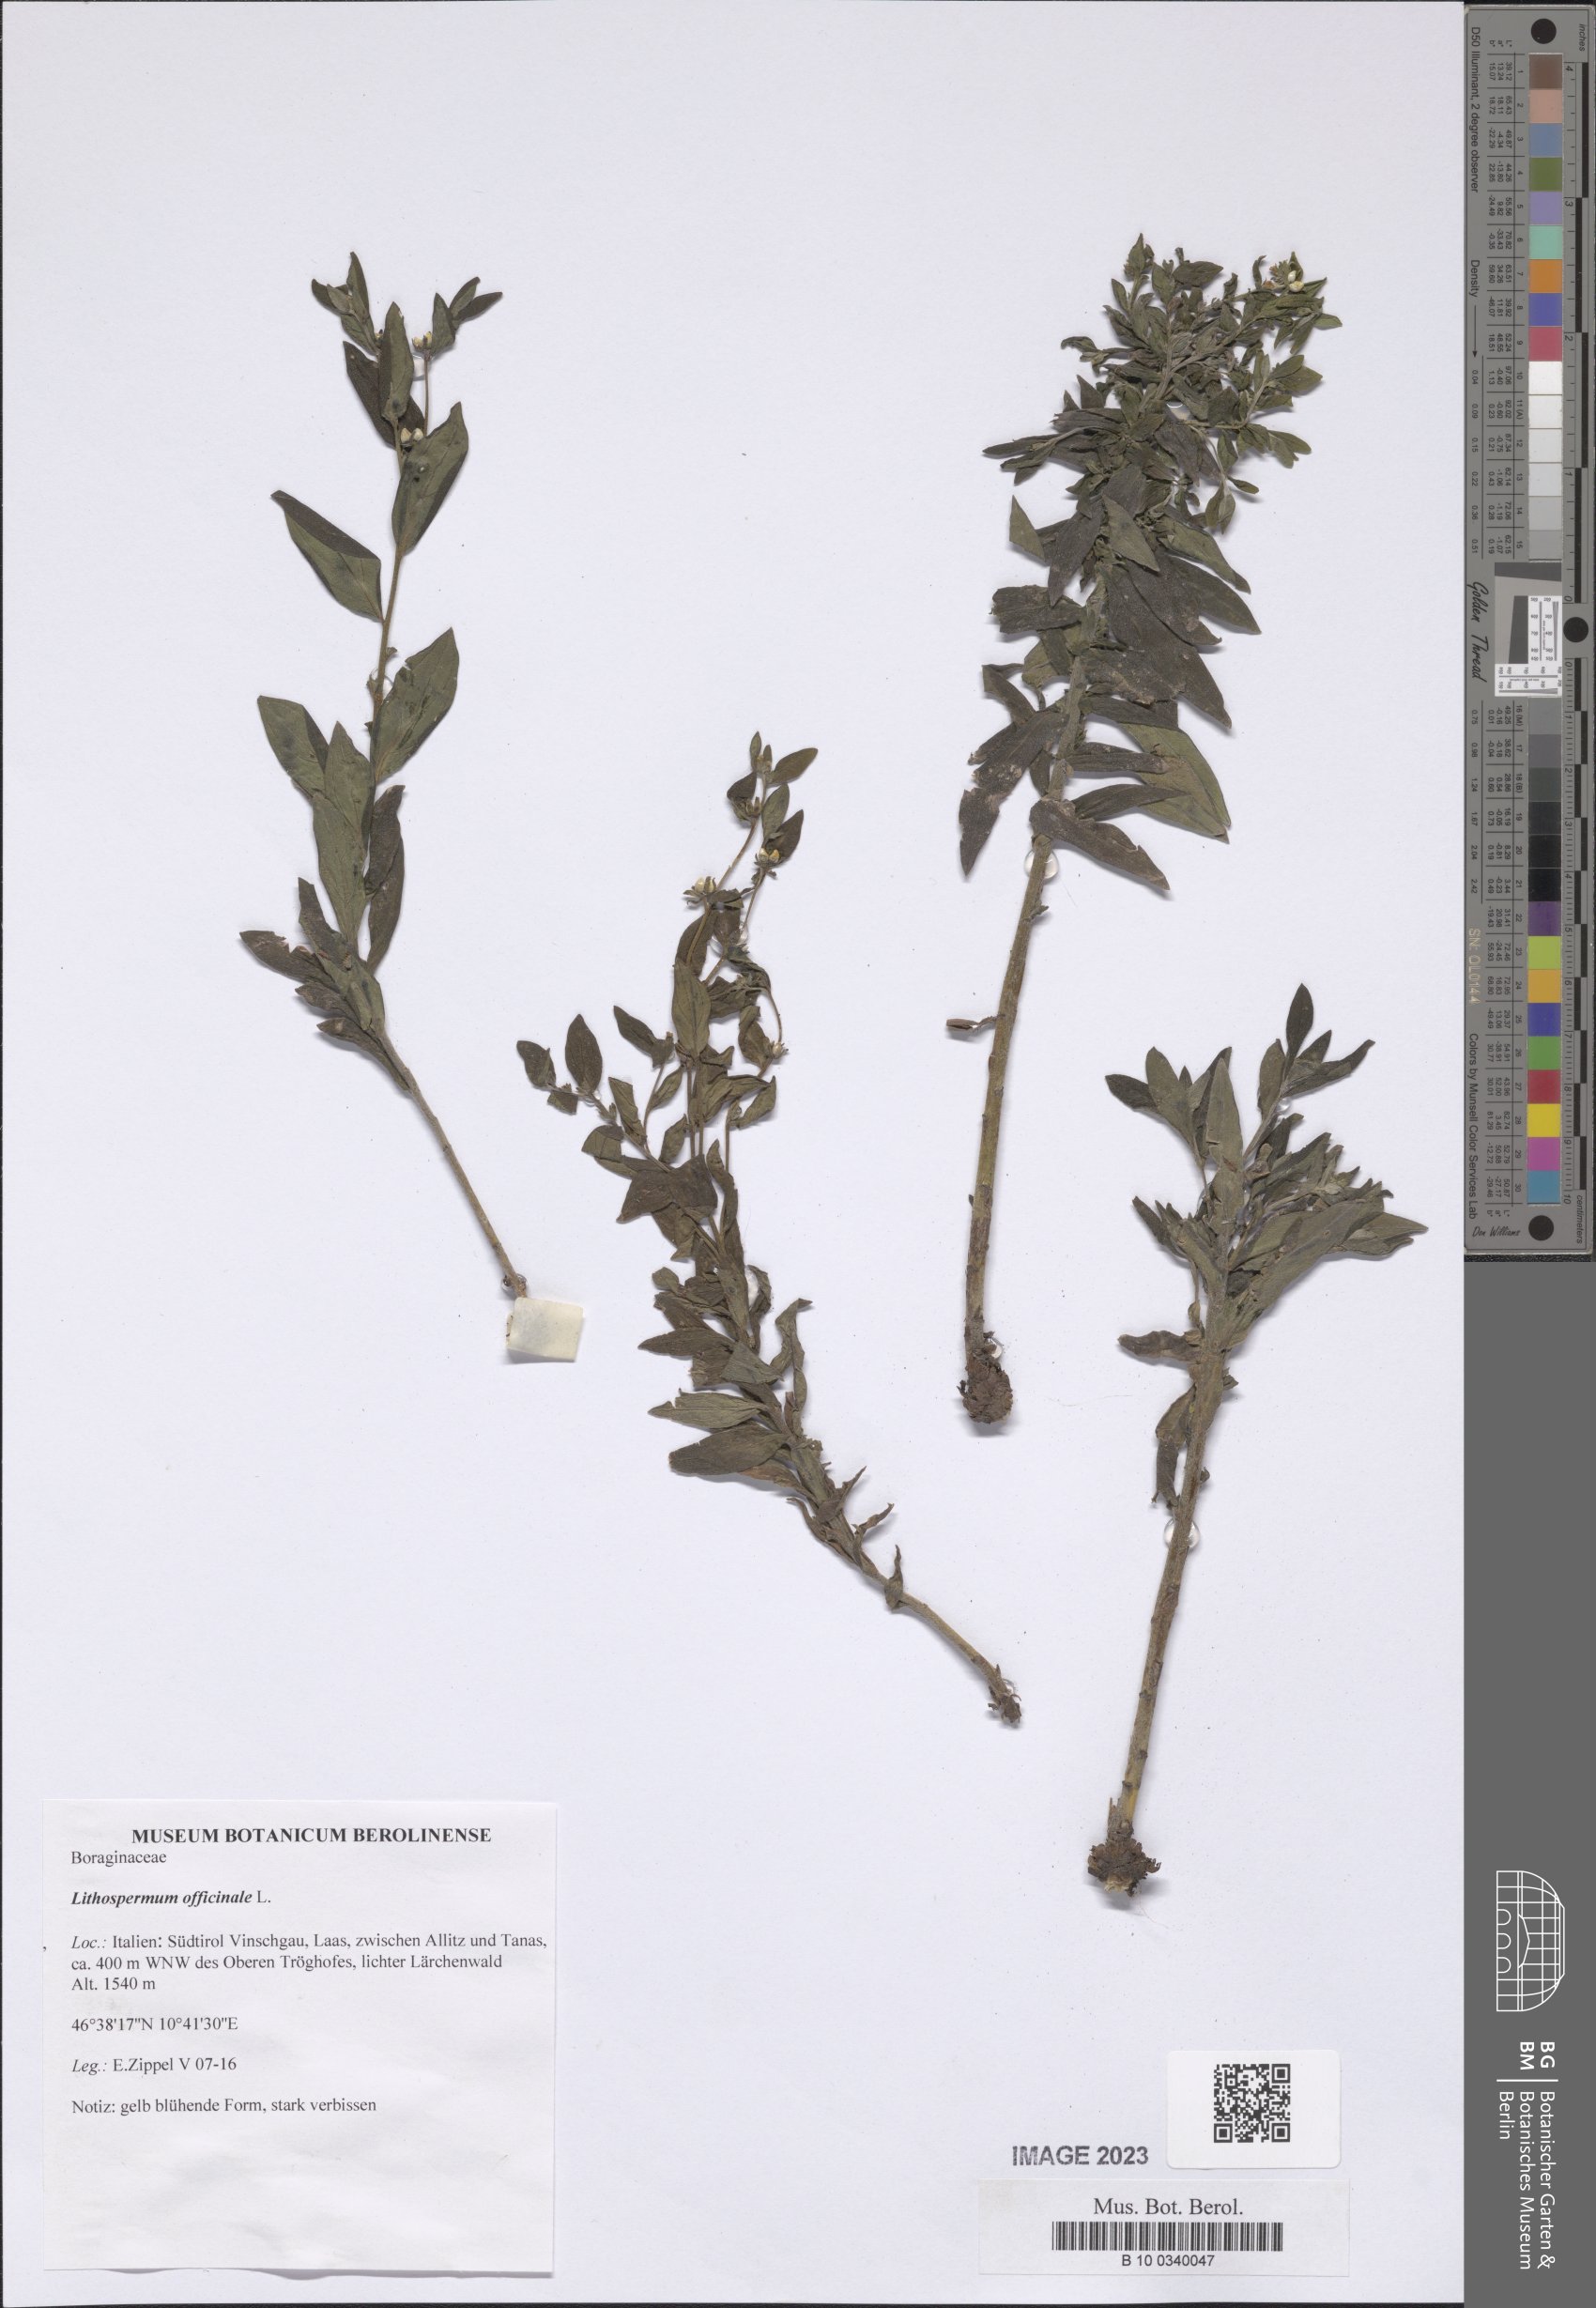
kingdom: Plantae
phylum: Tracheophyta
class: Magnoliopsida
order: Boraginales
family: Boraginaceae
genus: Lithospermum
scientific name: Lithospermum officinale
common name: Common gromwell
